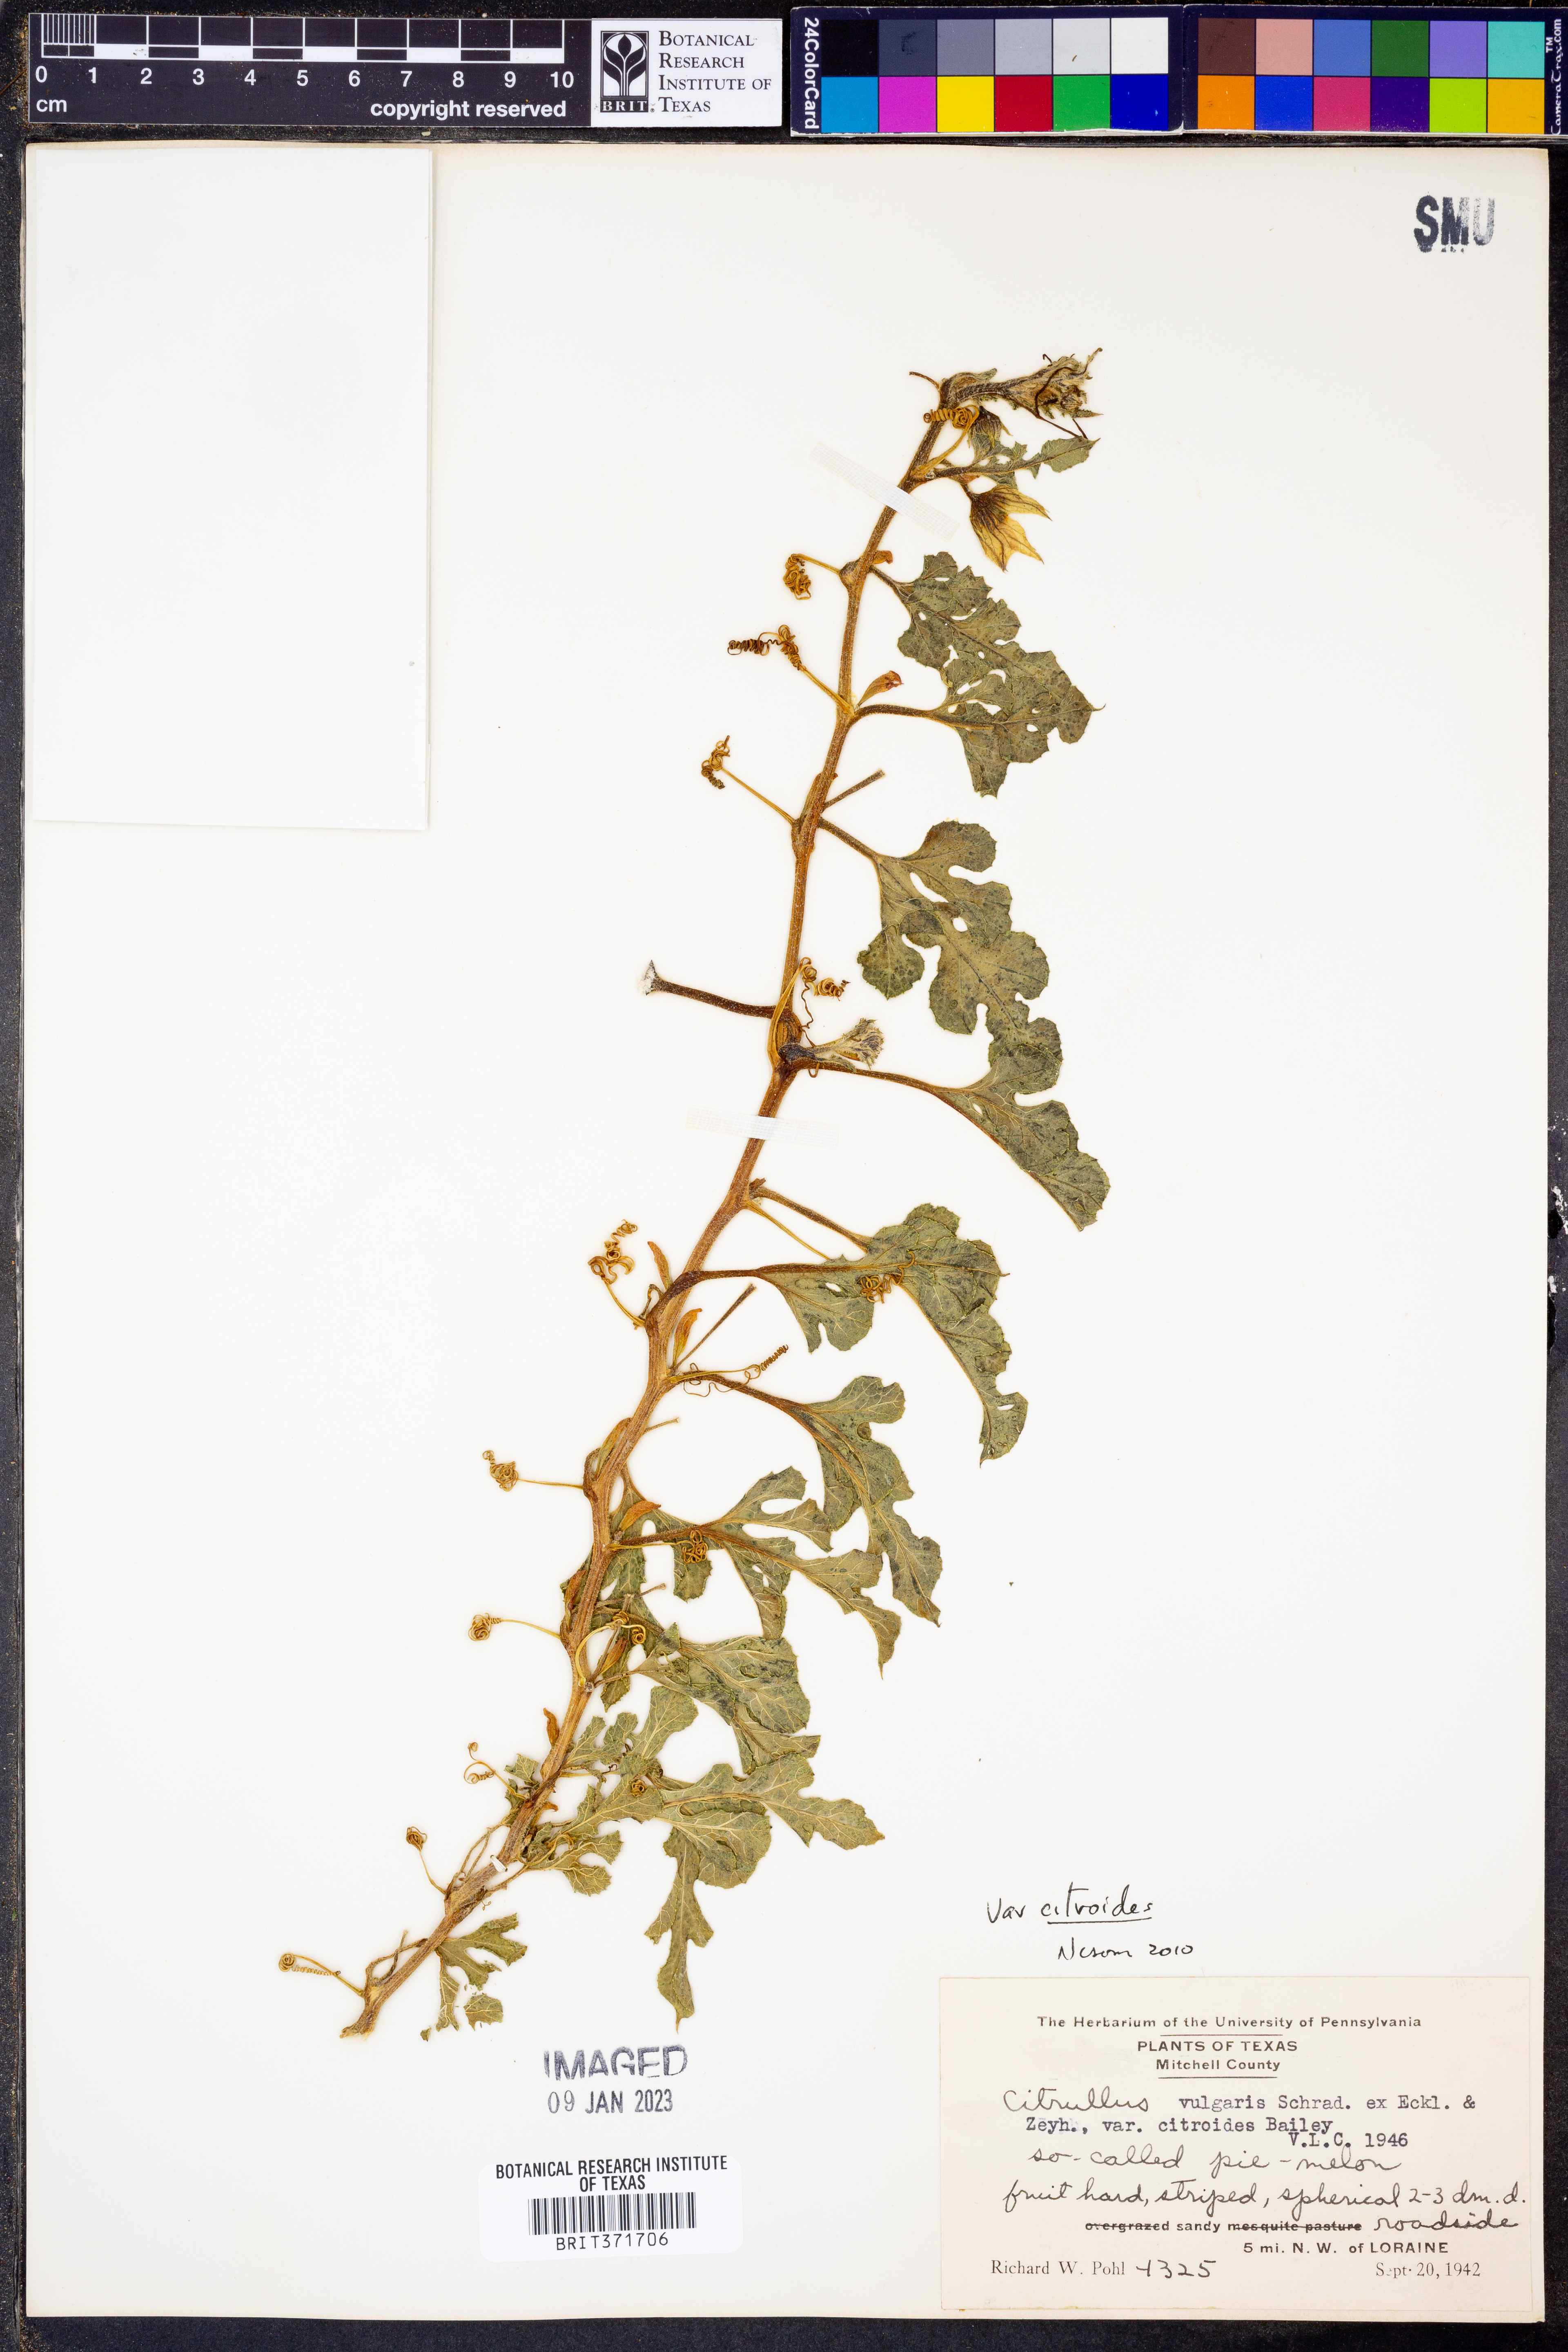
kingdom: Plantae
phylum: Tracheophyta
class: Magnoliopsida
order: Cucurbitales
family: Cucurbitaceae
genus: Citrullus
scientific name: Citrullus amarus
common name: Fodder-melon
